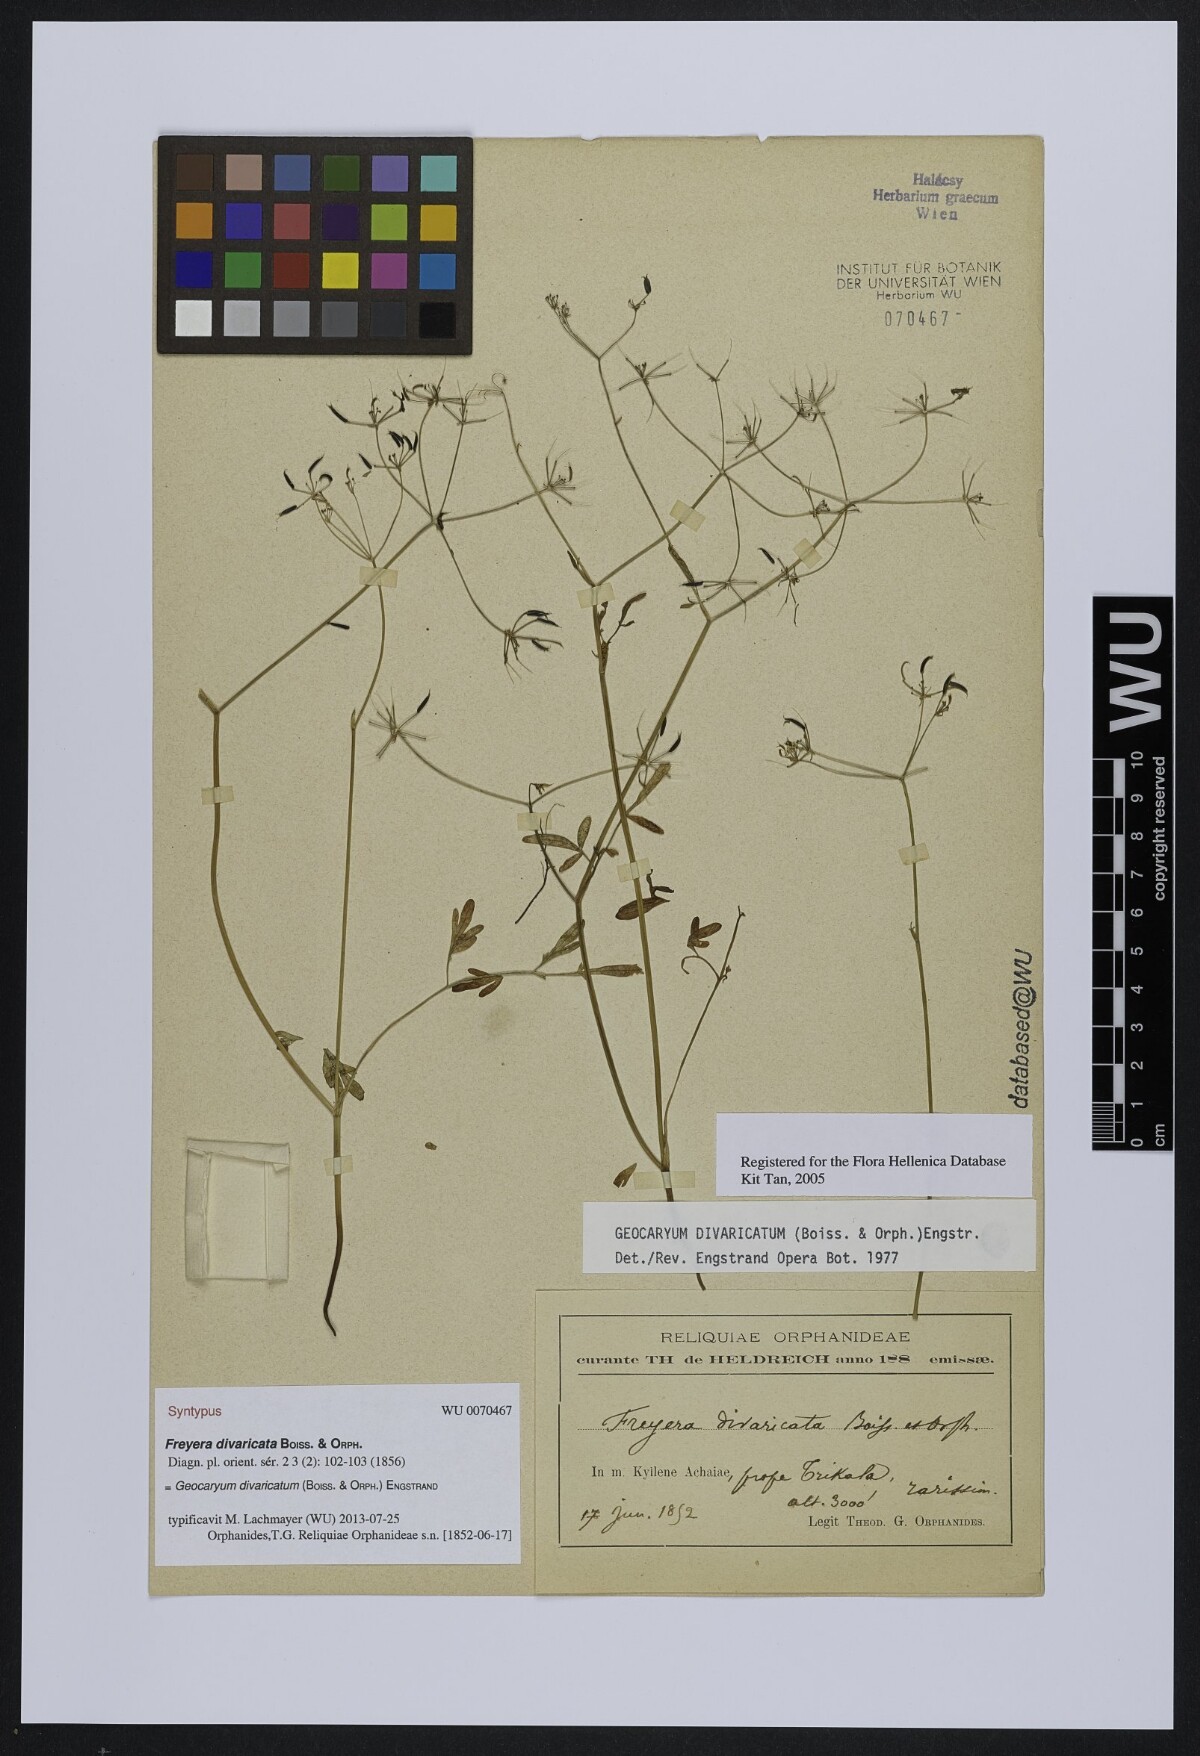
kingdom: Plantae
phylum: Tracheophyta
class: Magnoliopsida
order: Apiales
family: Apiaceae
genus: Geocaryum
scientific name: Geocaryum divaricatum
